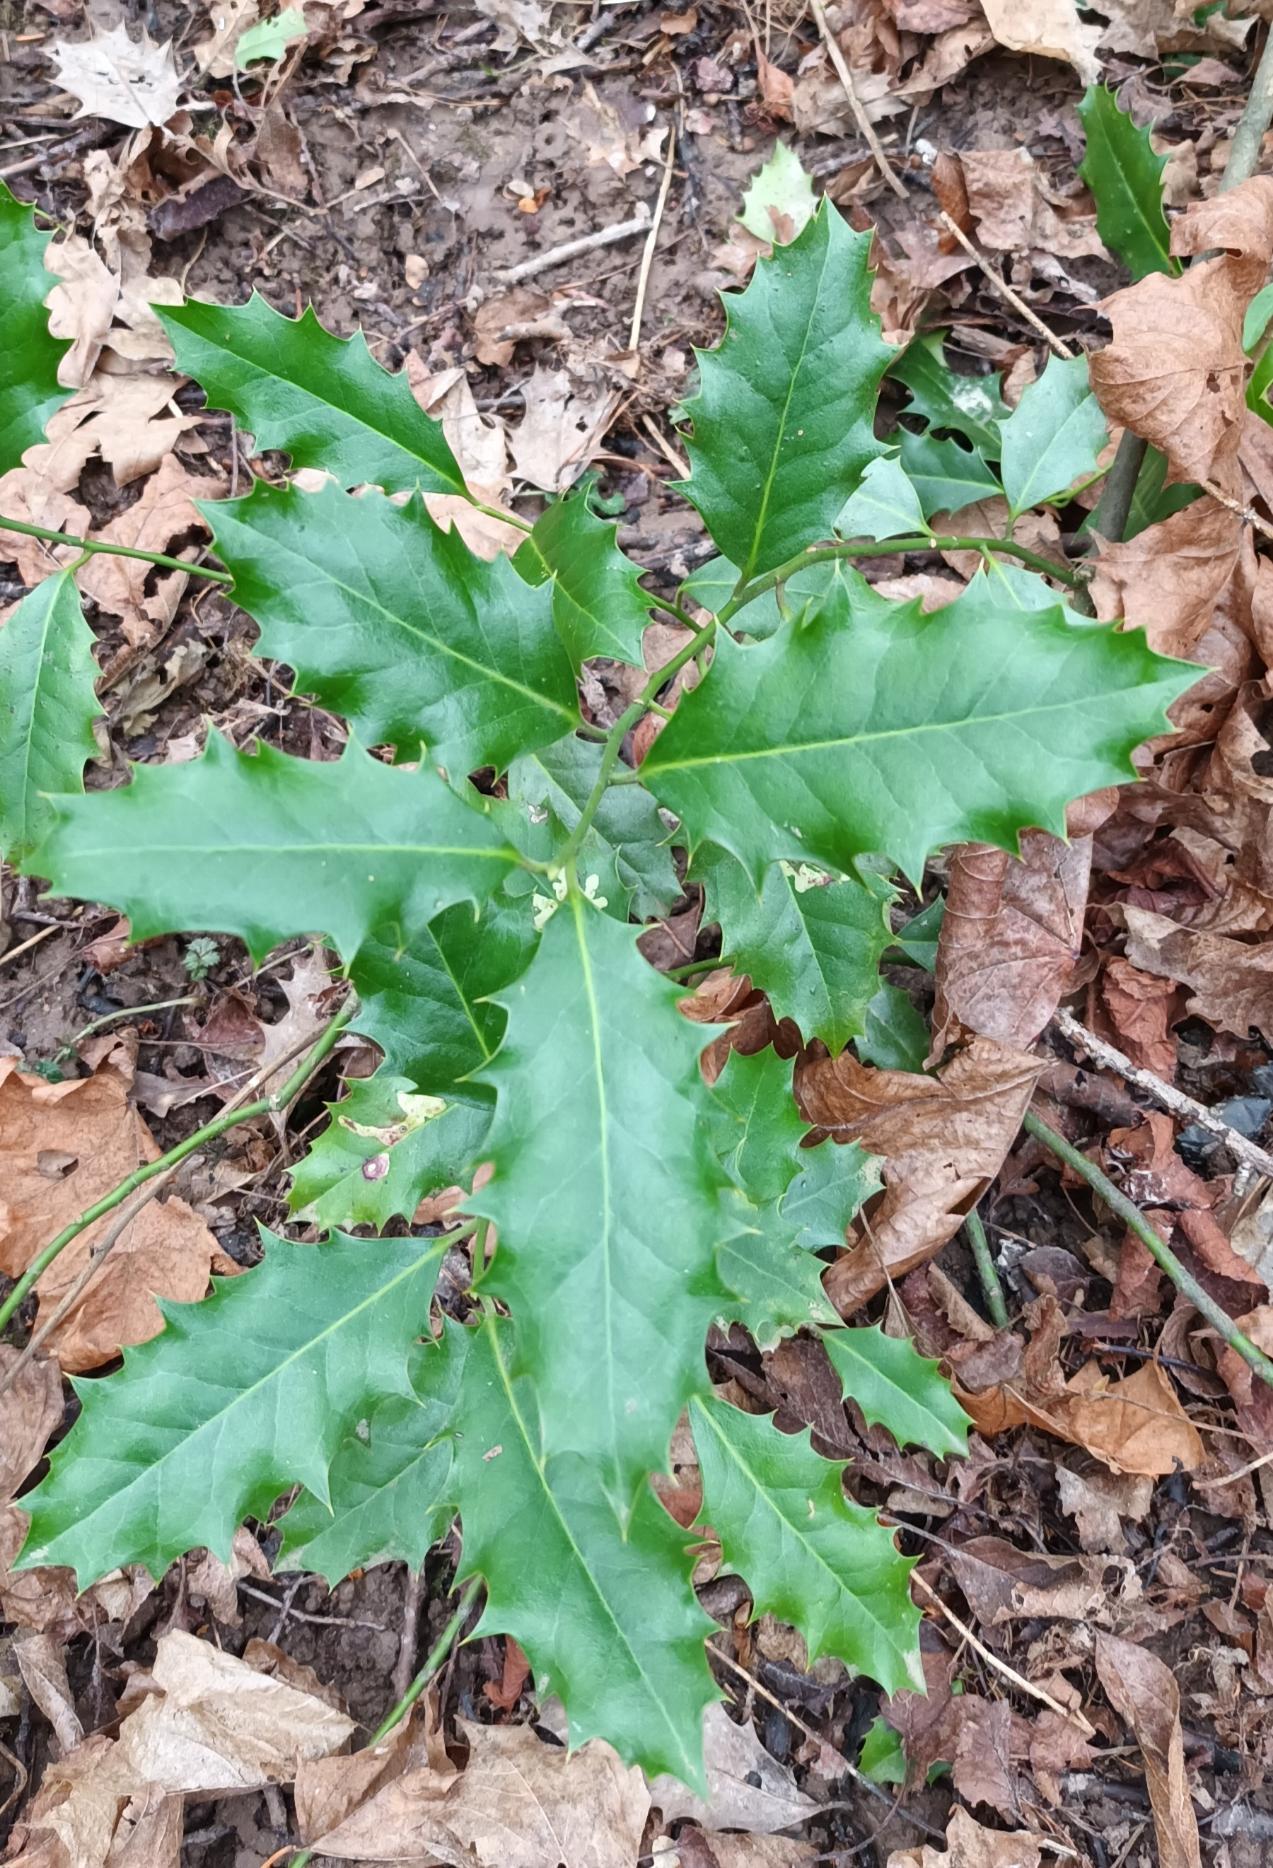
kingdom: Plantae
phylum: Tracheophyta
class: Magnoliopsida
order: Aquifoliales
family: Aquifoliaceae
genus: Ilex
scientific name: Ilex aquifolium
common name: Kristtorn
